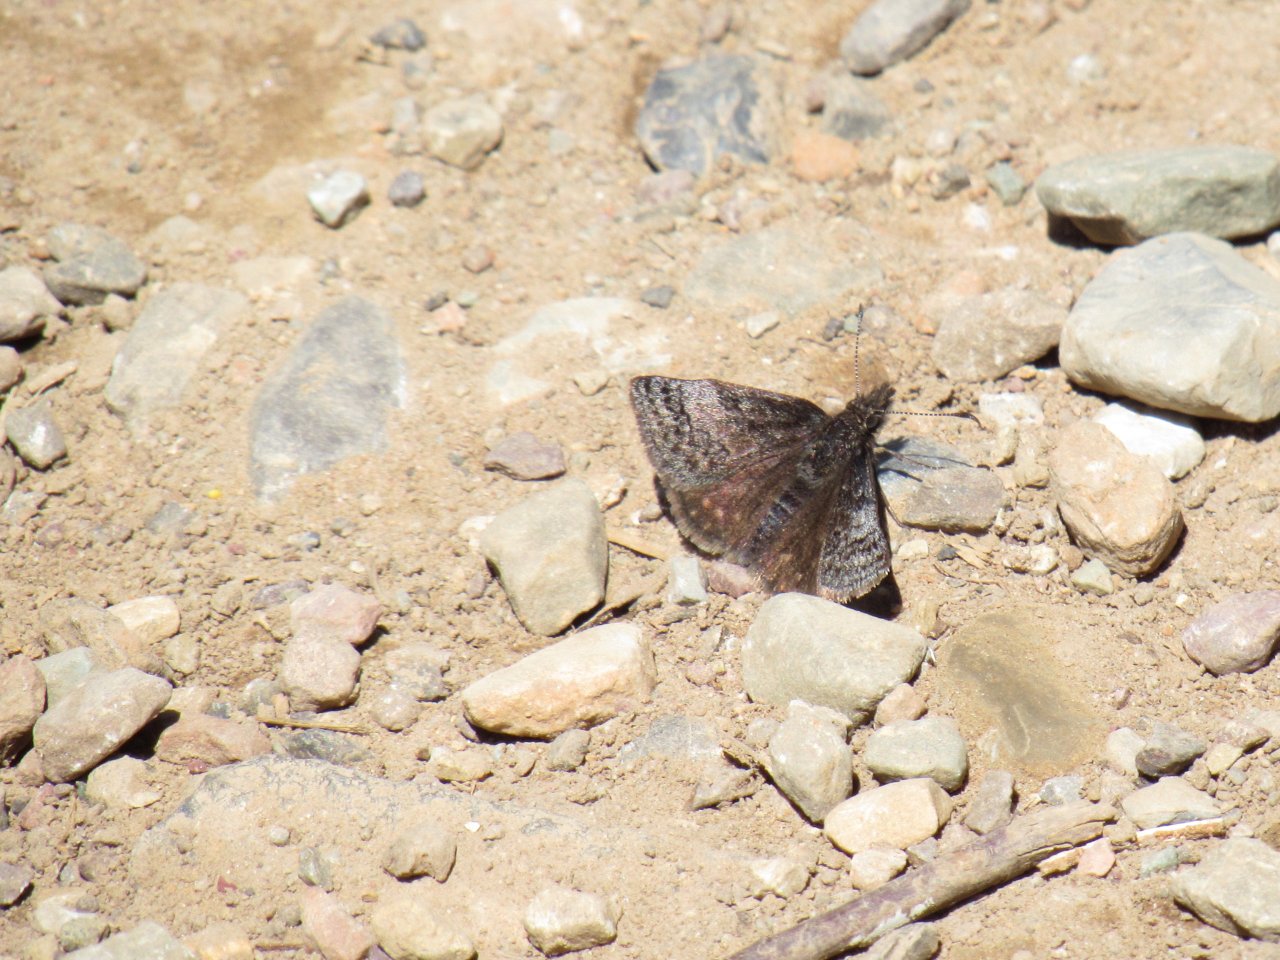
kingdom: Animalia
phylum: Arthropoda
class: Insecta
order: Lepidoptera
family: Hesperiidae
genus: Erynnis
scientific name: Erynnis icelus
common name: Dreamy Duskywing
